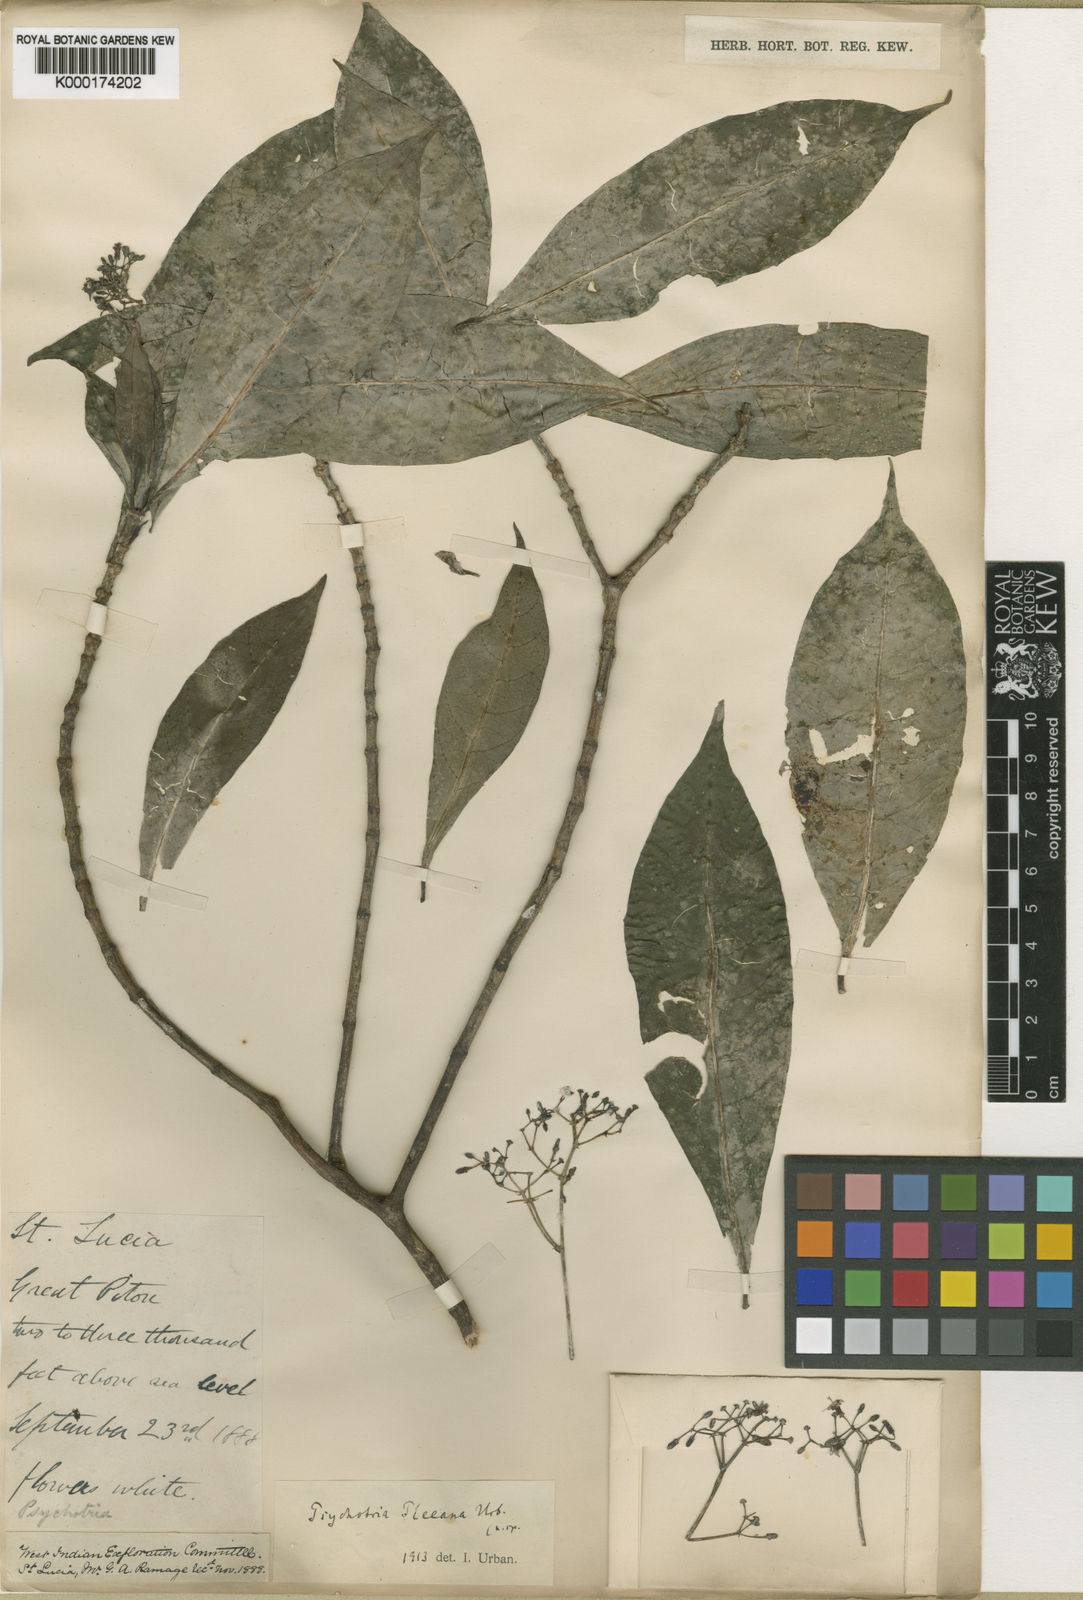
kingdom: Plantae
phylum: Tracheophyta
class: Magnoliopsida
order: Gentianales
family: Rubiaceae
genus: Psychotria
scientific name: Psychotria pleeana
